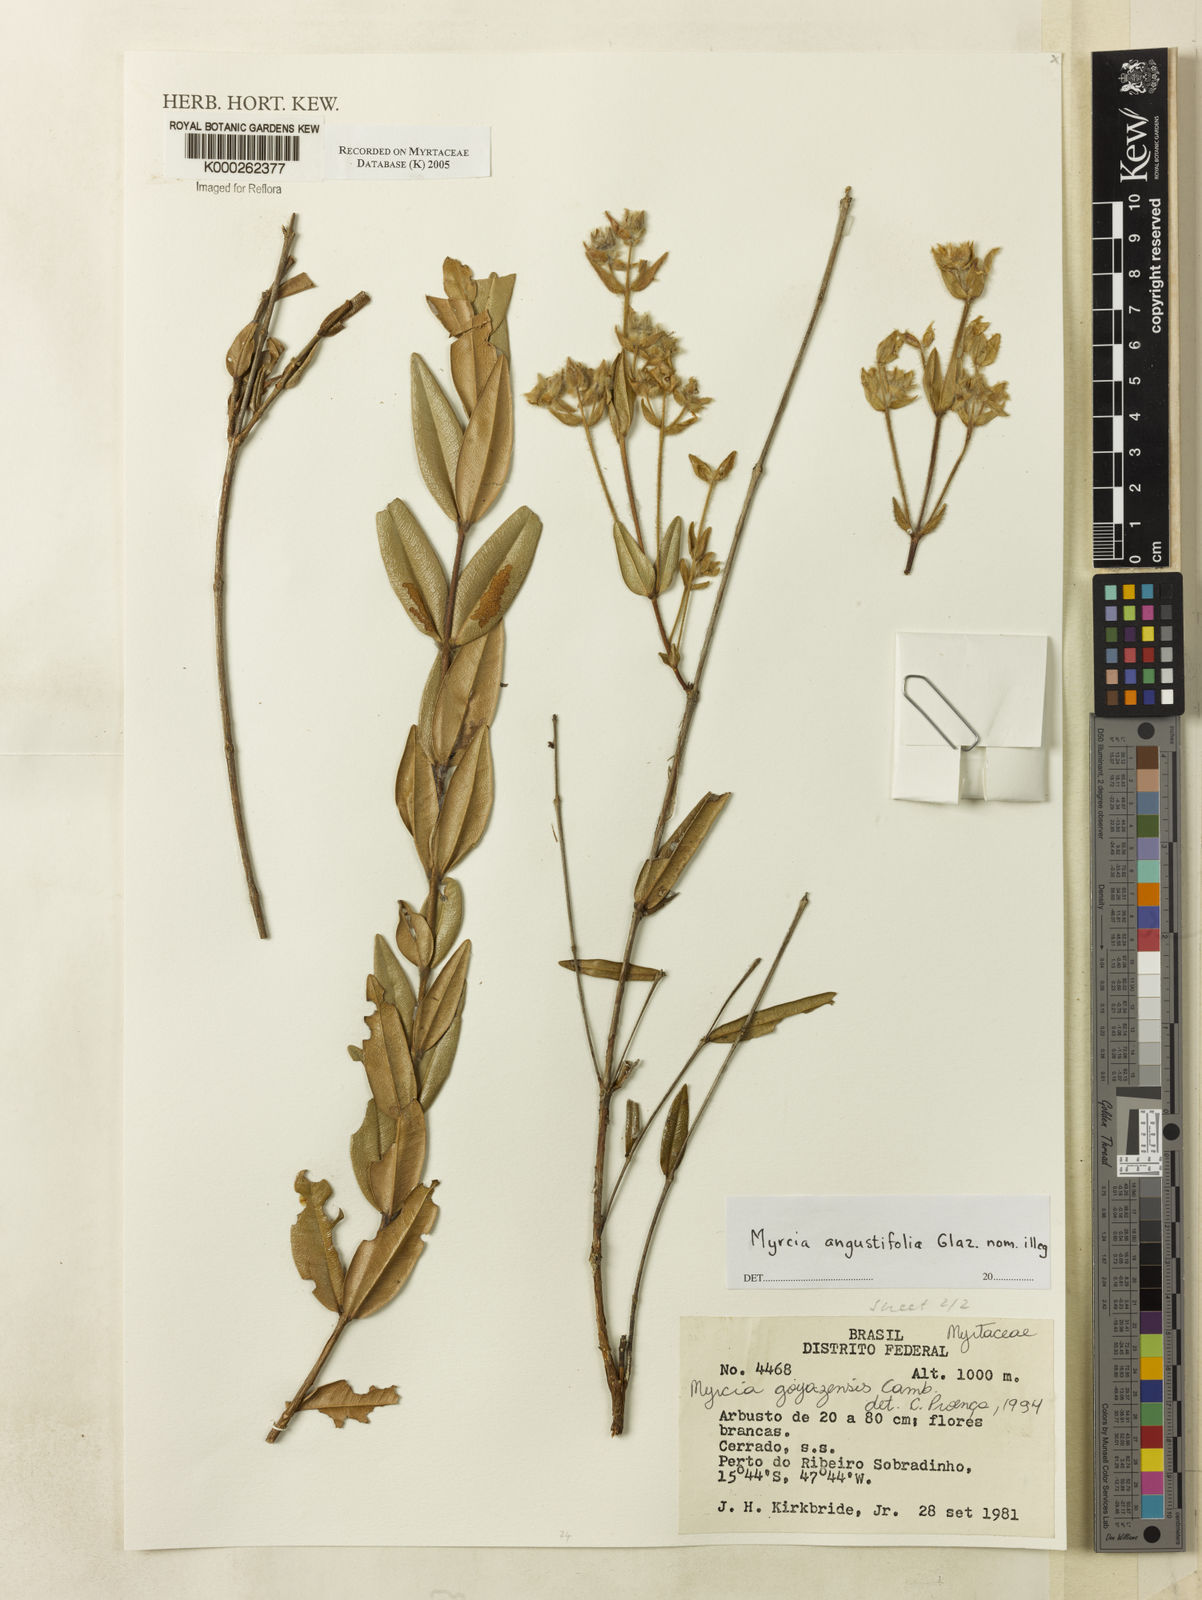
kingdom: Plantae
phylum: Tracheophyta
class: Magnoliopsida
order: Myrtales
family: Myrtaceae
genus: Myrcia
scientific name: Myrcia goyazensis
